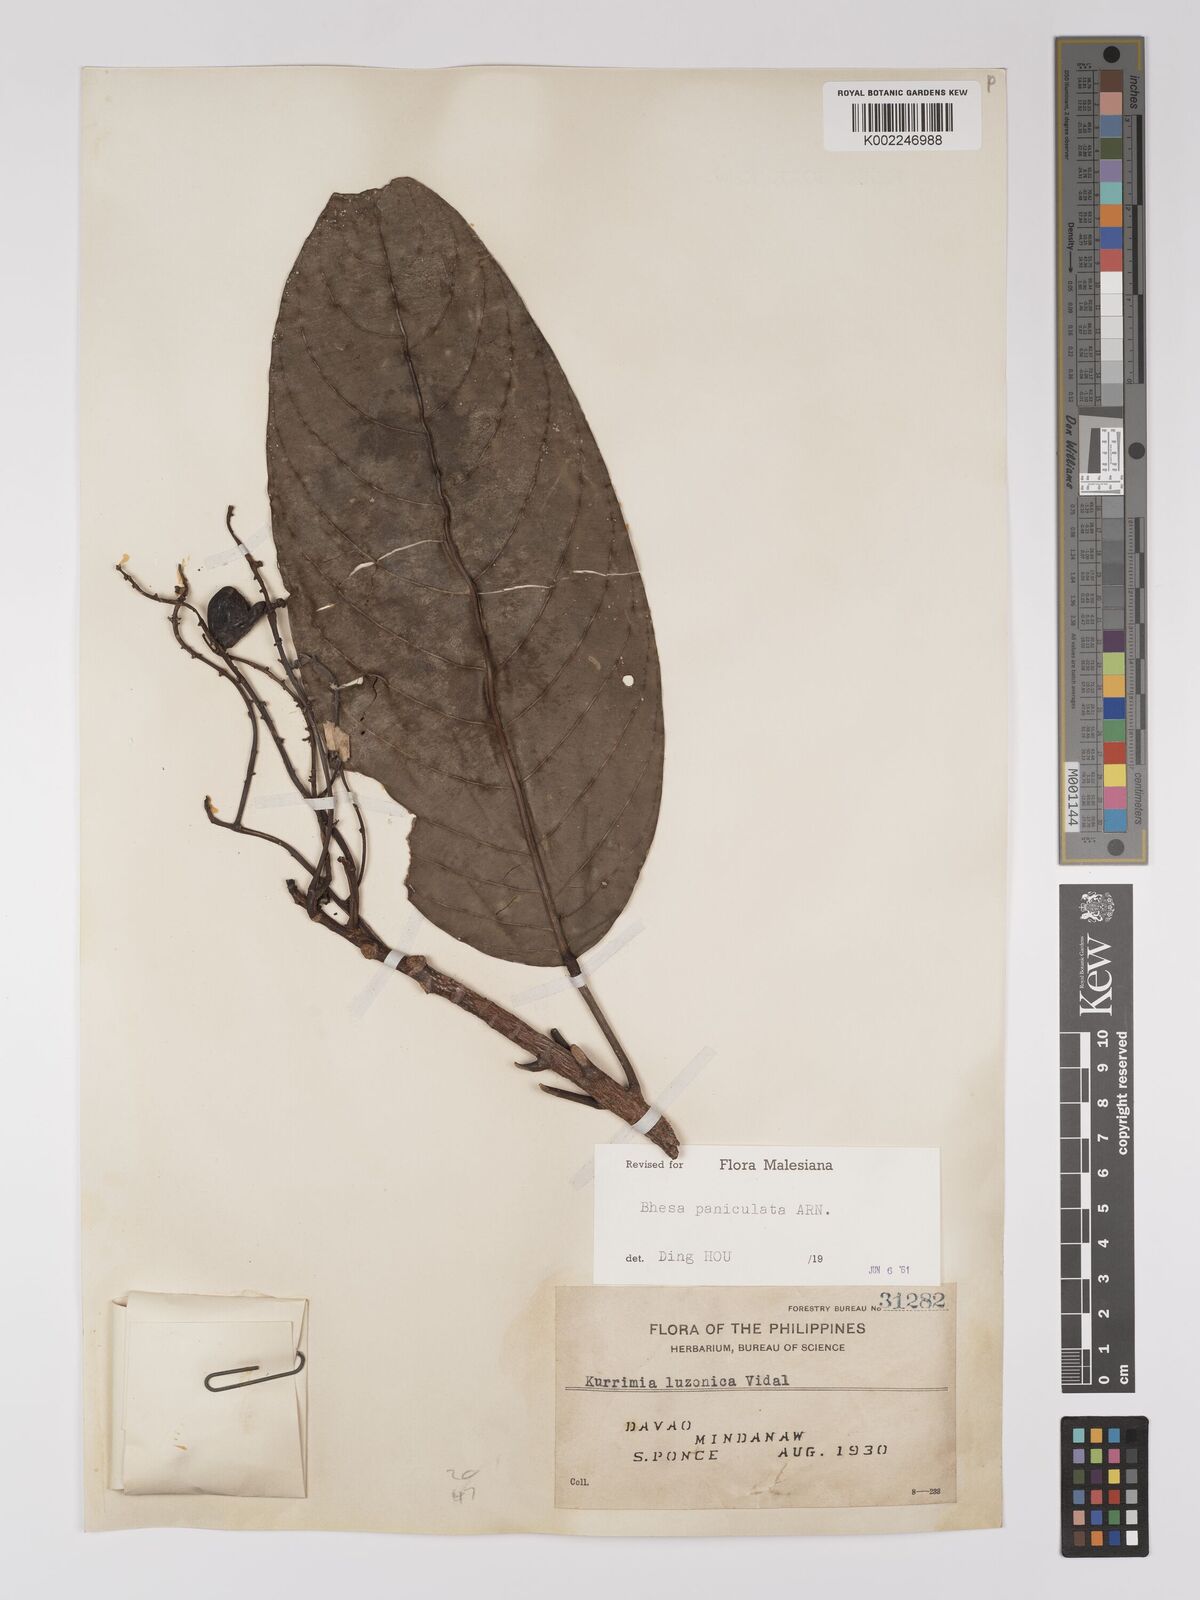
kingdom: Plantae
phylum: Tracheophyta
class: Magnoliopsida
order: Malpighiales
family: Centroplacaceae
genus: Bhesa
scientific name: Bhesa paniculata
